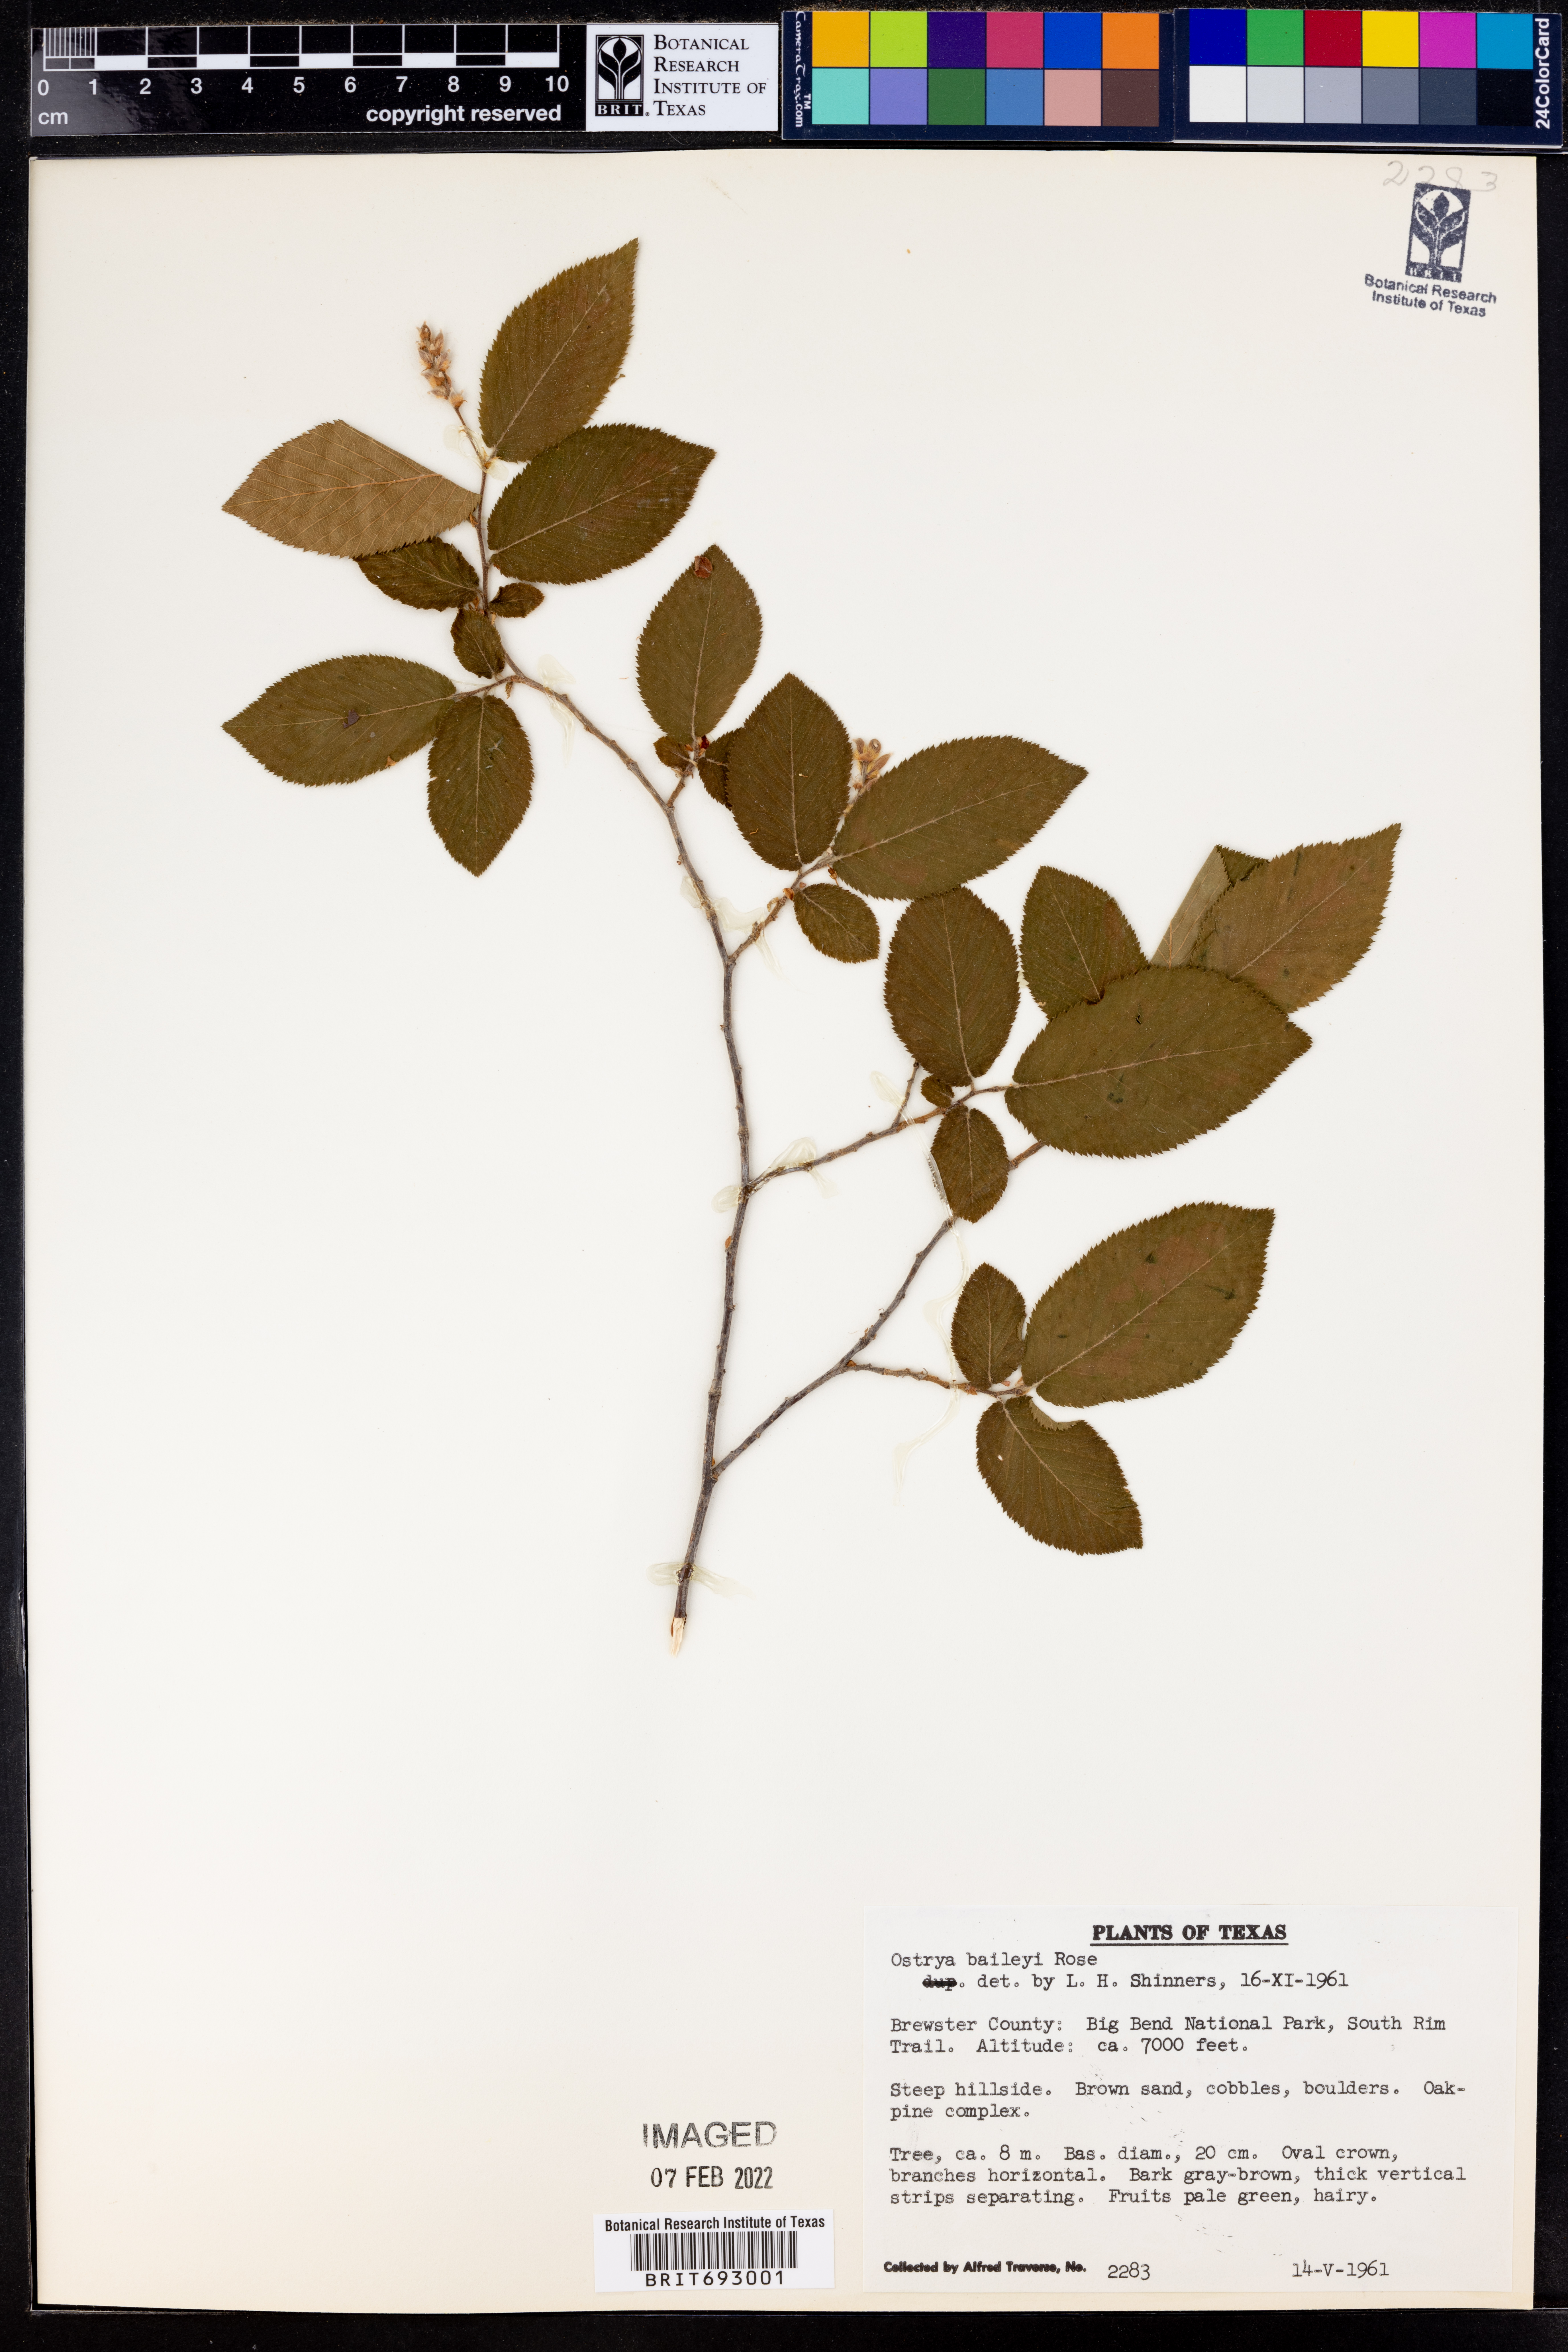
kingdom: Plantae
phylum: Tracheophyta
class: Magnoliopsida
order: Fagales
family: Betulaceae
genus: Ostrya
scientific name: Ostrya virginiana
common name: Ironwood
